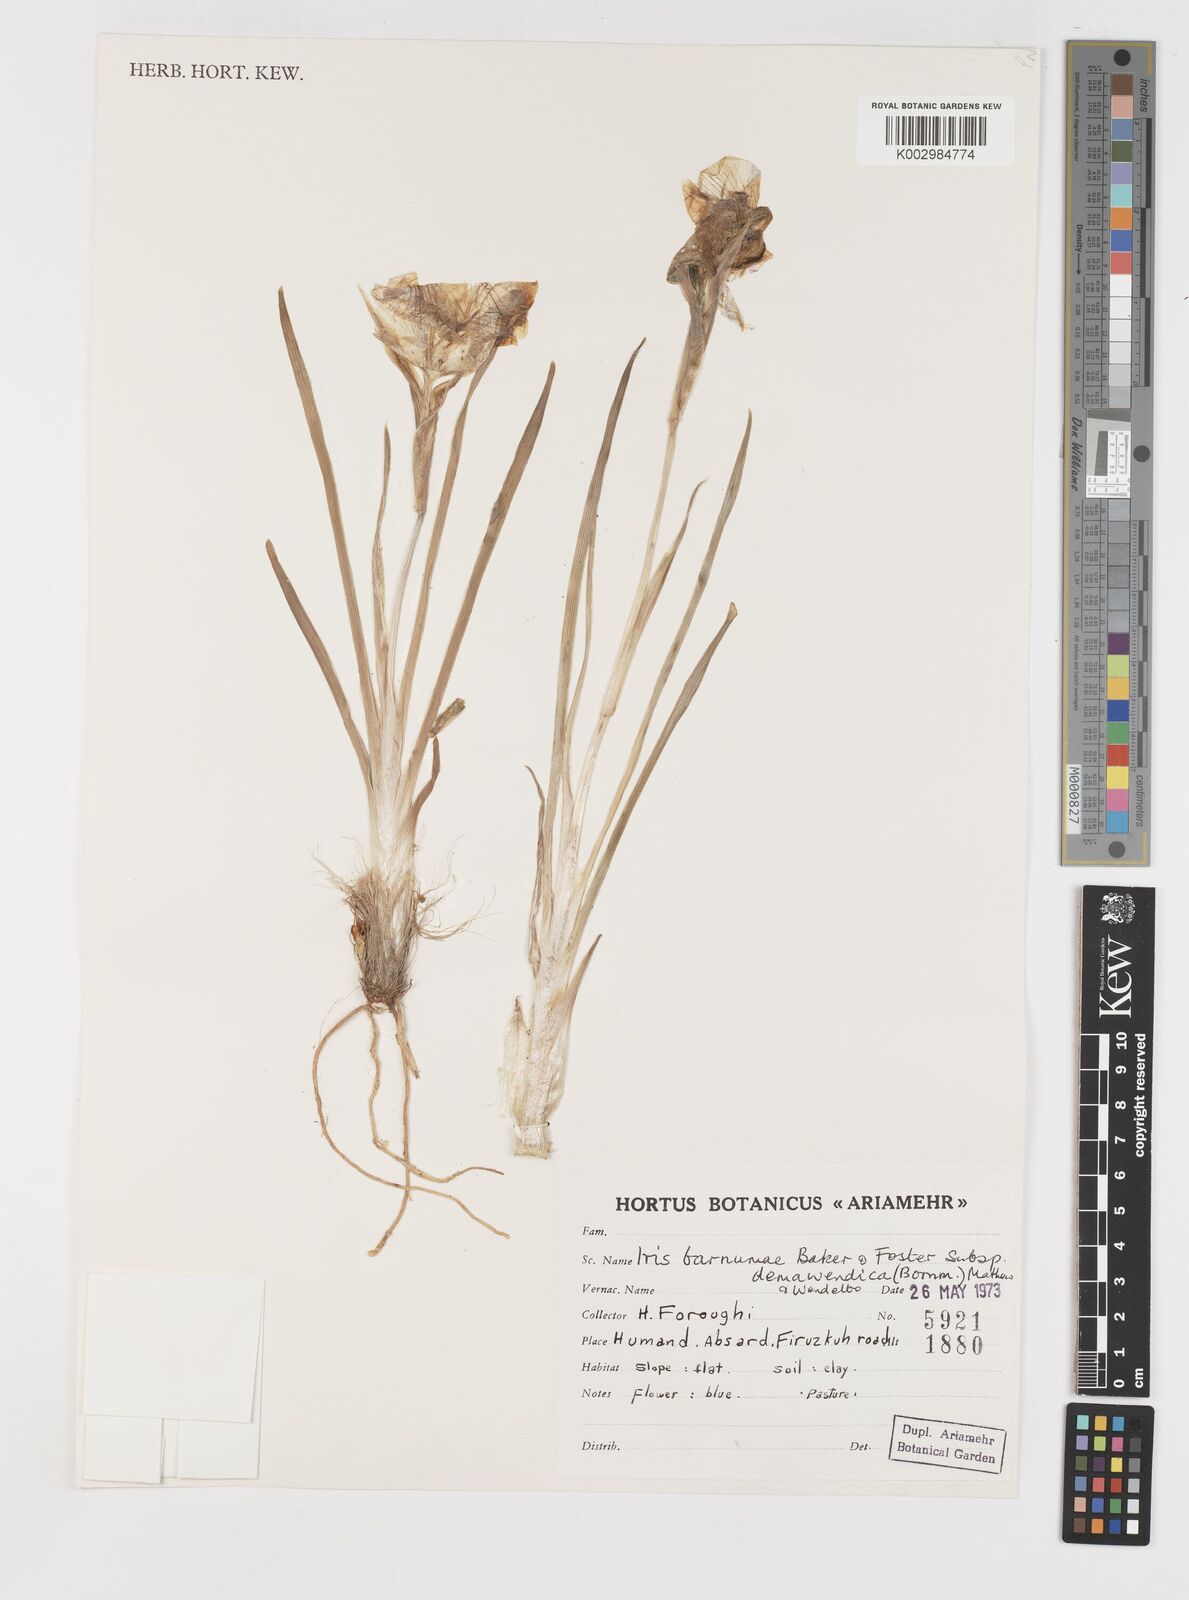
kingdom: Plantae
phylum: Tracheophyta
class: Liliopsida
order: Asparagales
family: Iridaceae
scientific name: Iridaceae
